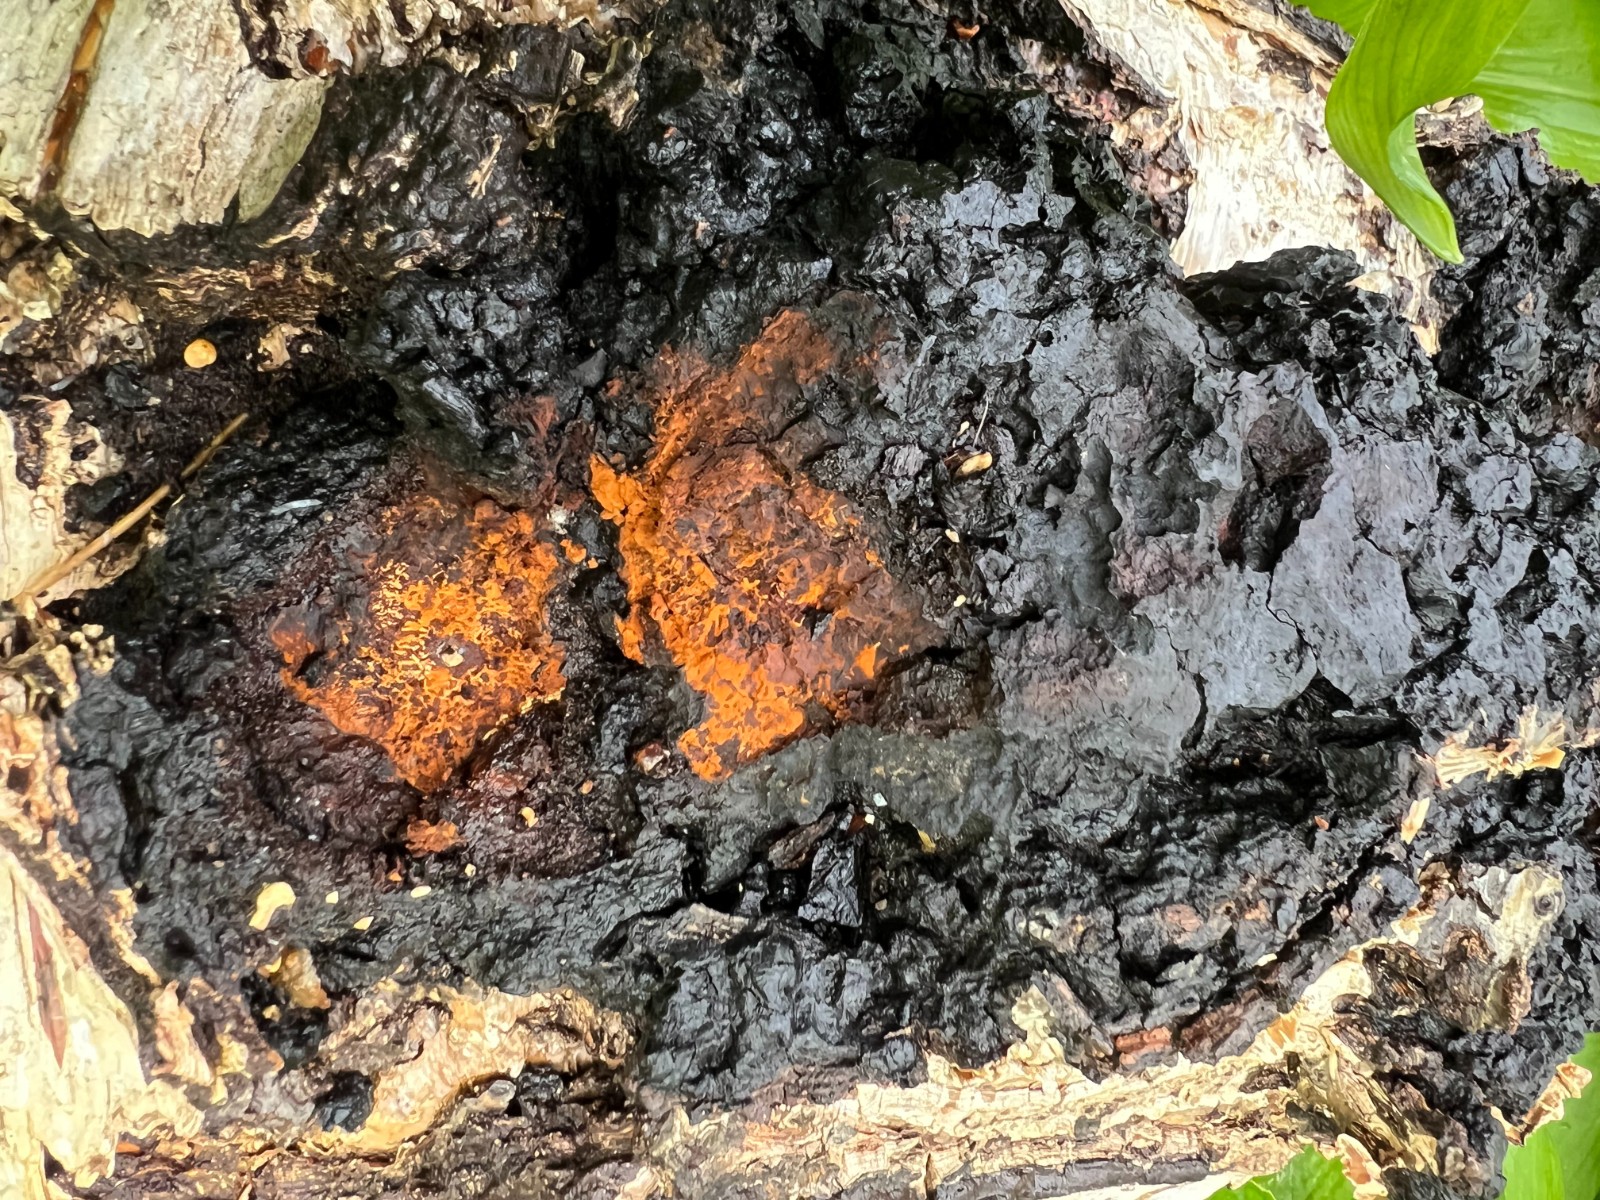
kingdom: Fungi
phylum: Basidiomycota
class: Agaricomycetes
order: Hymenochaetales
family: Hymenochaetaceae
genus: Inonotus
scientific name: Inonotus obliquus
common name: birke-spejlporesvamp
